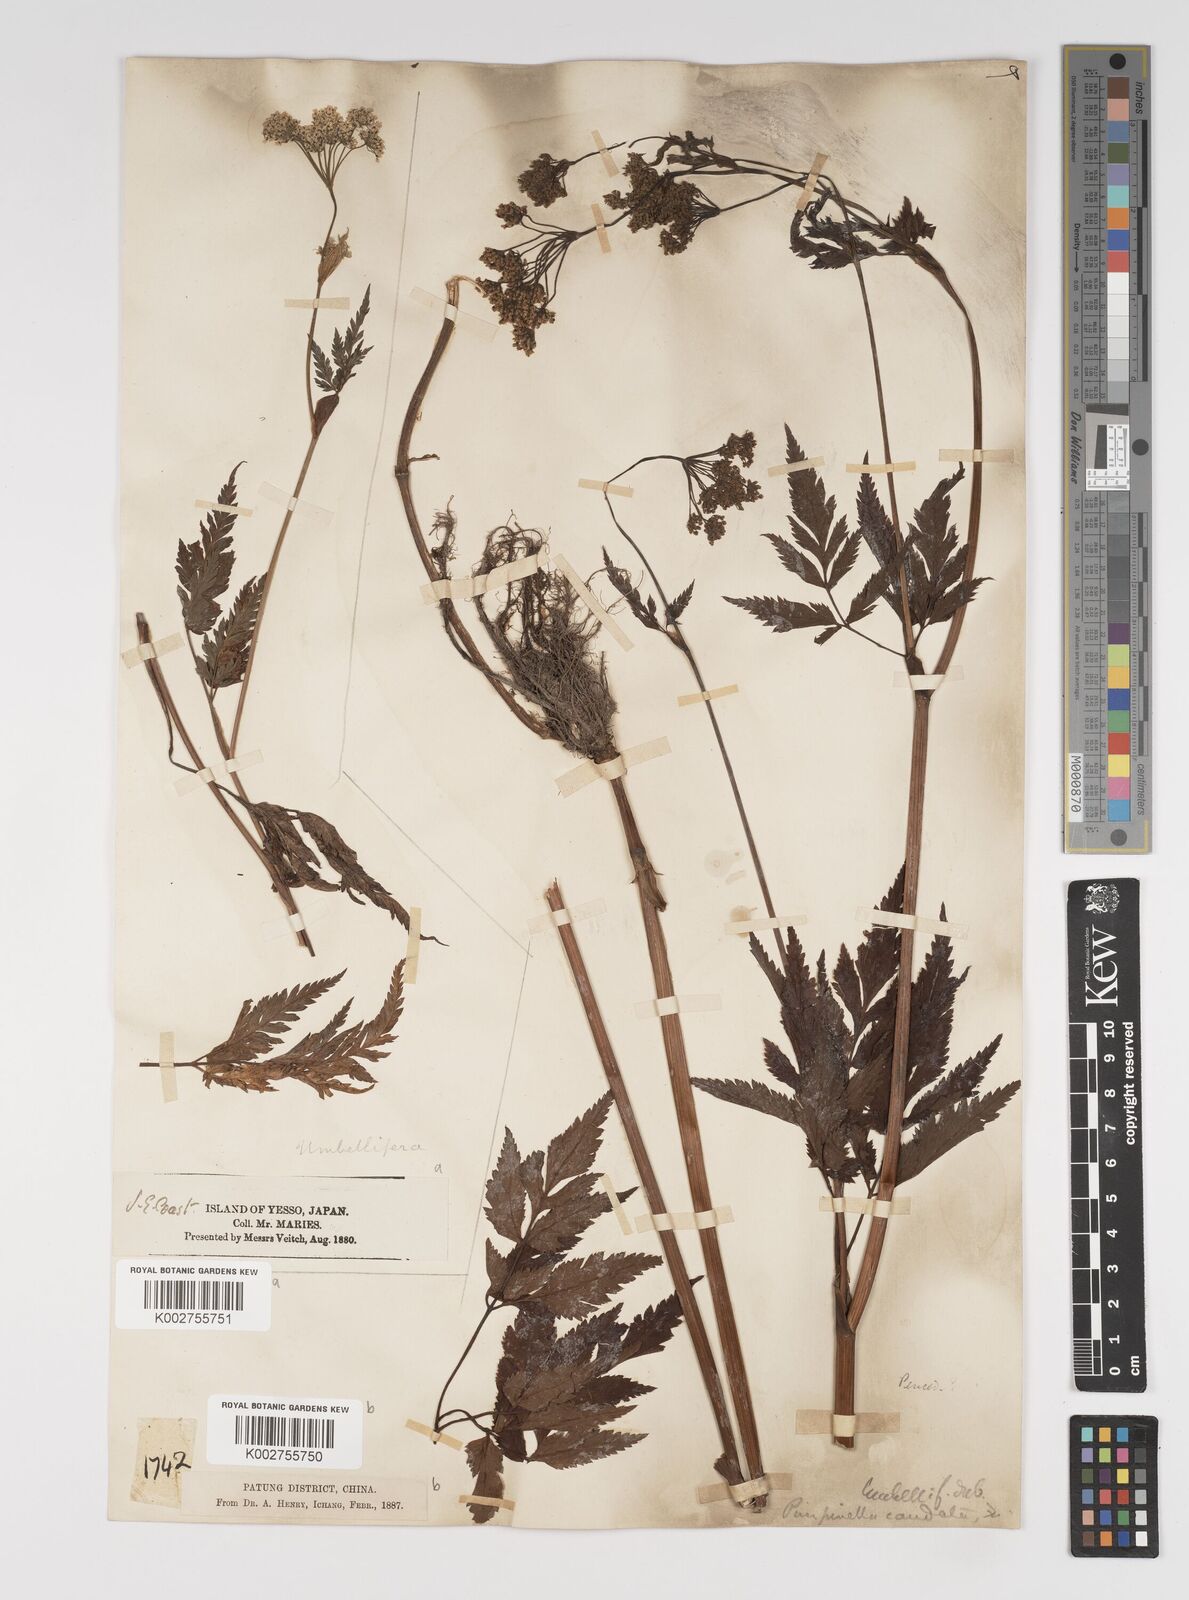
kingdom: Plantae
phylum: Tracheophyta
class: Magnoliopsida
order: Apiales
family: Apiaceae
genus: Pimpinella
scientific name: Pimpinella caudata
